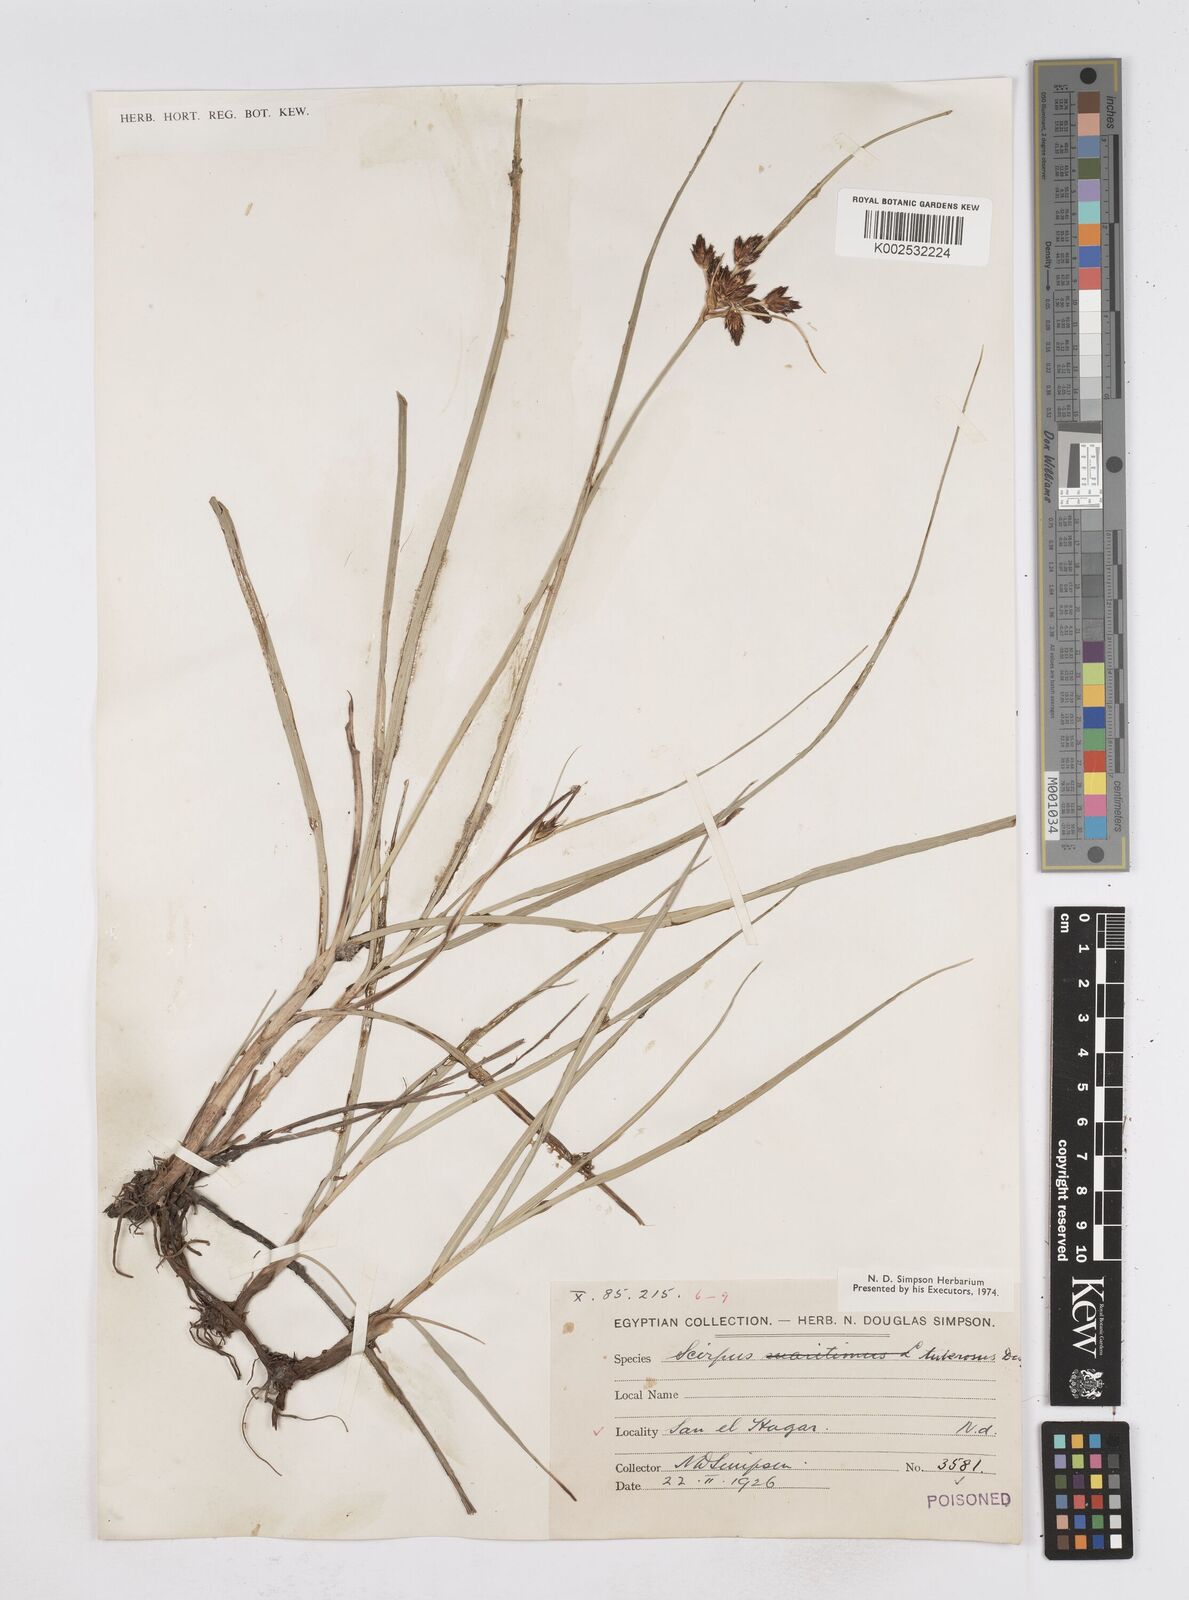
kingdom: Plantae
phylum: Tracheophyta
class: Liliopsida
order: Poales
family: Cyperaceae
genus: Bolboschoenus
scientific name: Bolboschoenus maritimus
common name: Sea club-rush
